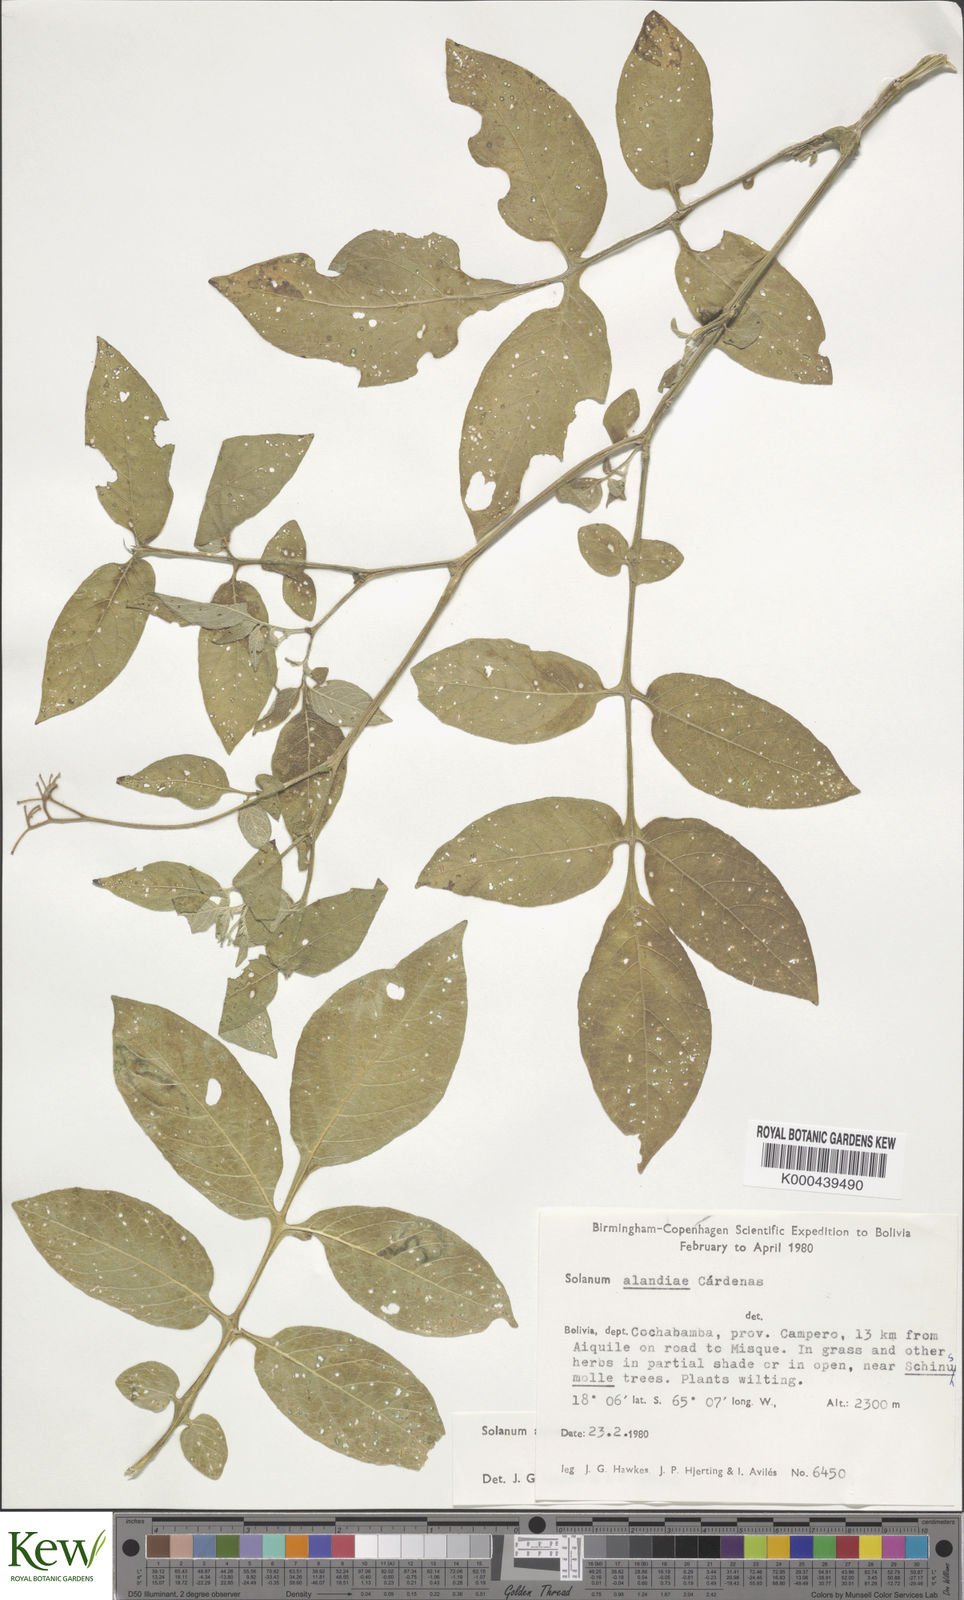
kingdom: Plantae
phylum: Tracheophyta
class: Magnoliopsida
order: Solanales
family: Solanaceae
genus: Solanum
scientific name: Solanum brevicaule
